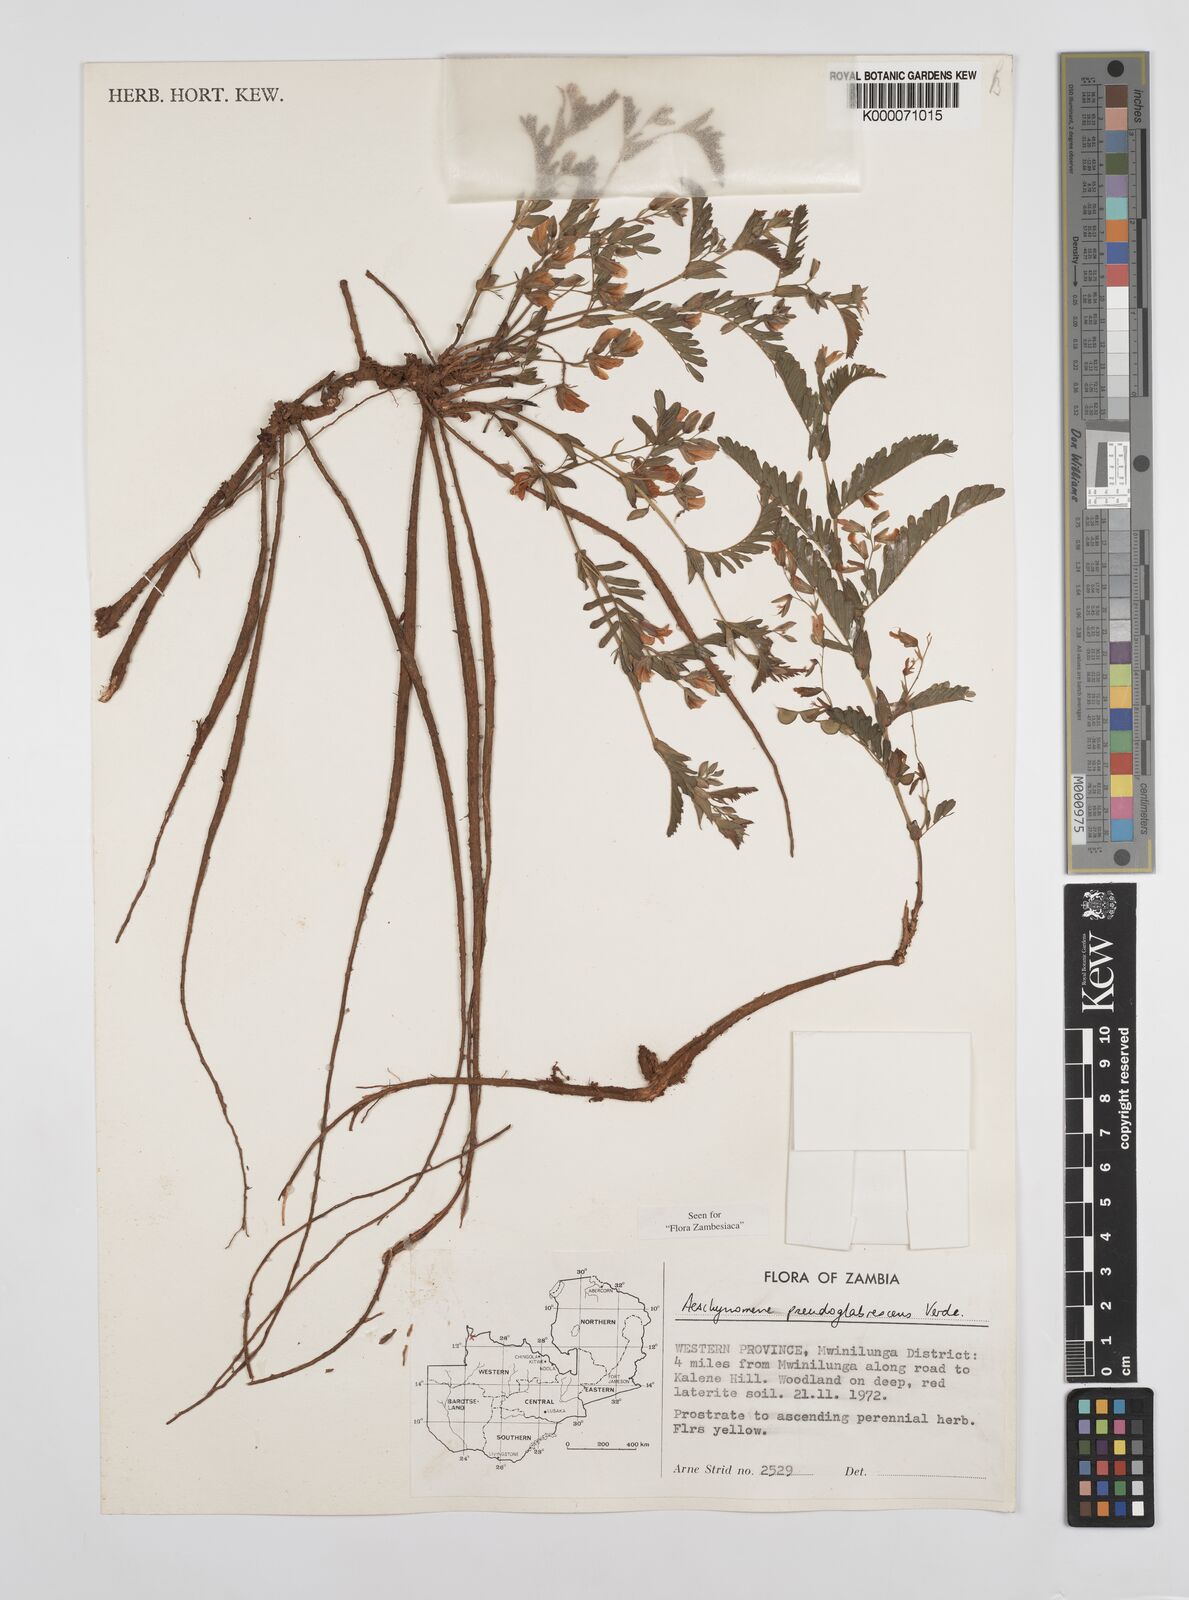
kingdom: Plantae
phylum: Tracheophyta
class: Magnoliopsida
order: Fabales
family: Fabaceae
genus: Aeschynomene
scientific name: Aeschynomene pseudoglabrescens
